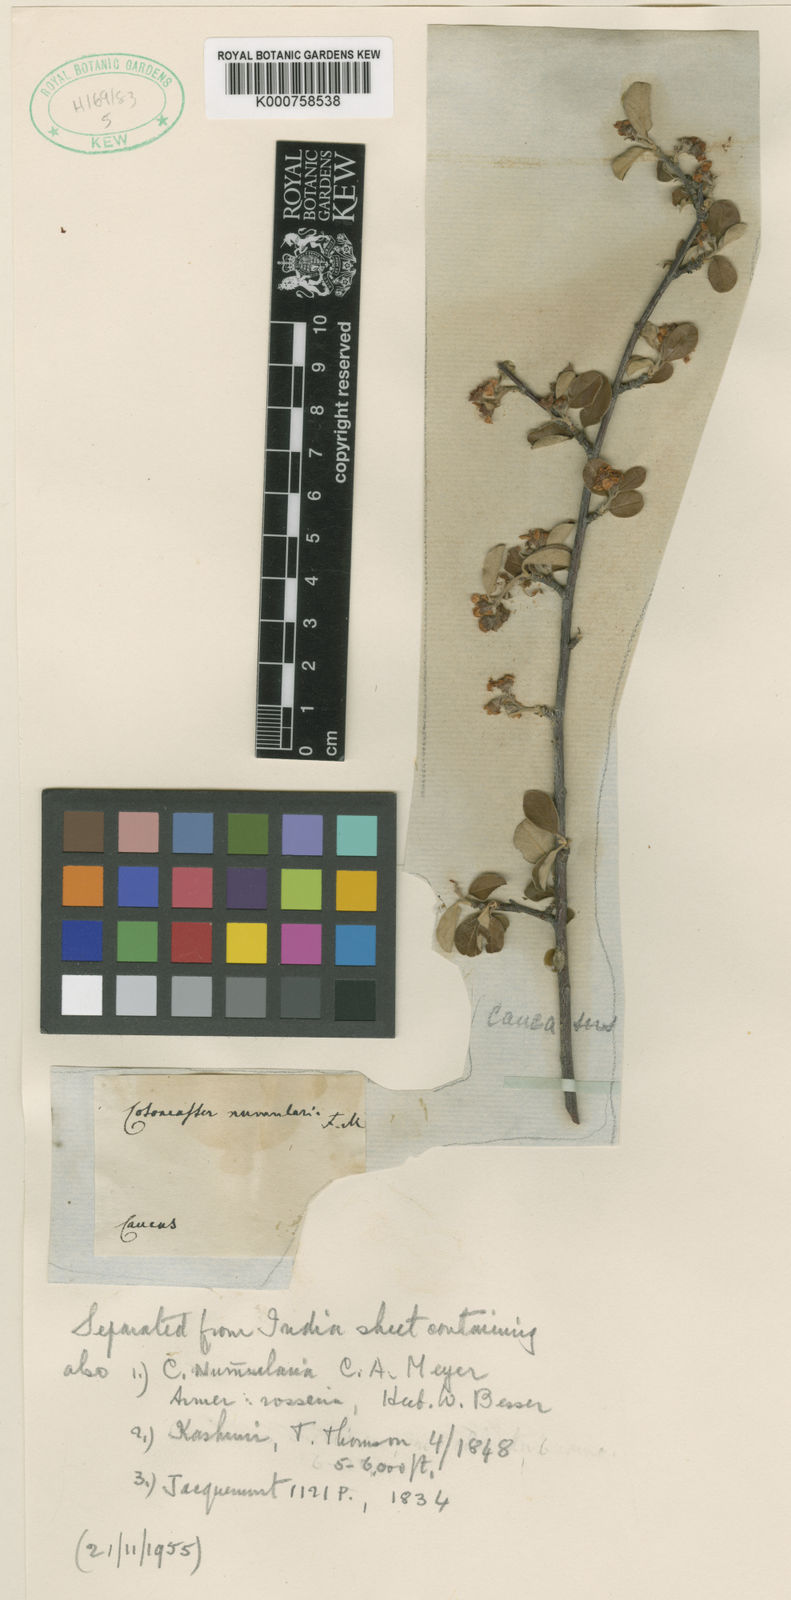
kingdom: Plantae
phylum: Tracheophyta
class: Magnoliopsida
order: Rosales
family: Rosaceae
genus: Cotoneaster
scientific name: Cotoneaster
